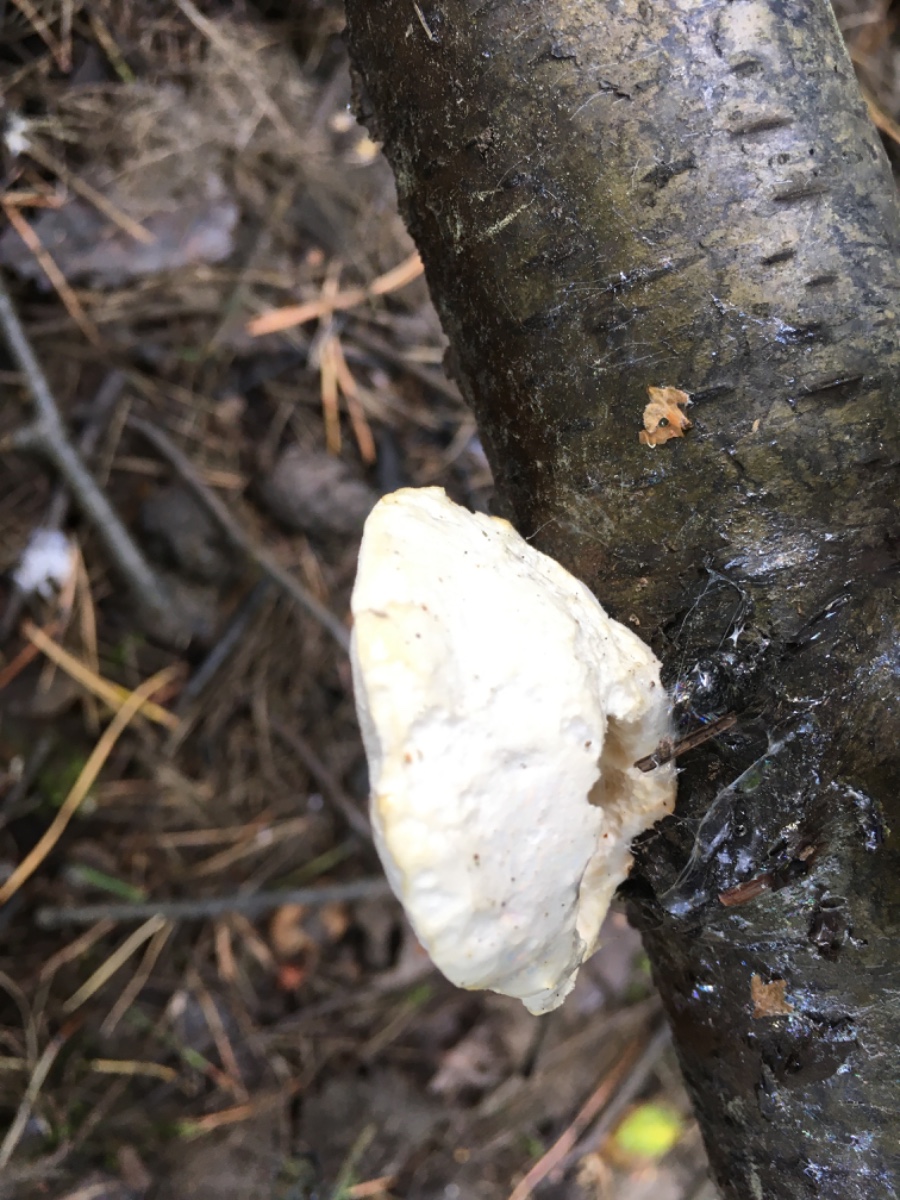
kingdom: Fungi
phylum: Basidiomycota
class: Agaricomycetes
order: Polyporales
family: Incrustoporiaceae
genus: Tyromyces
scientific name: Tyromyces lacteus
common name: mælkehvid kødporesvamp
